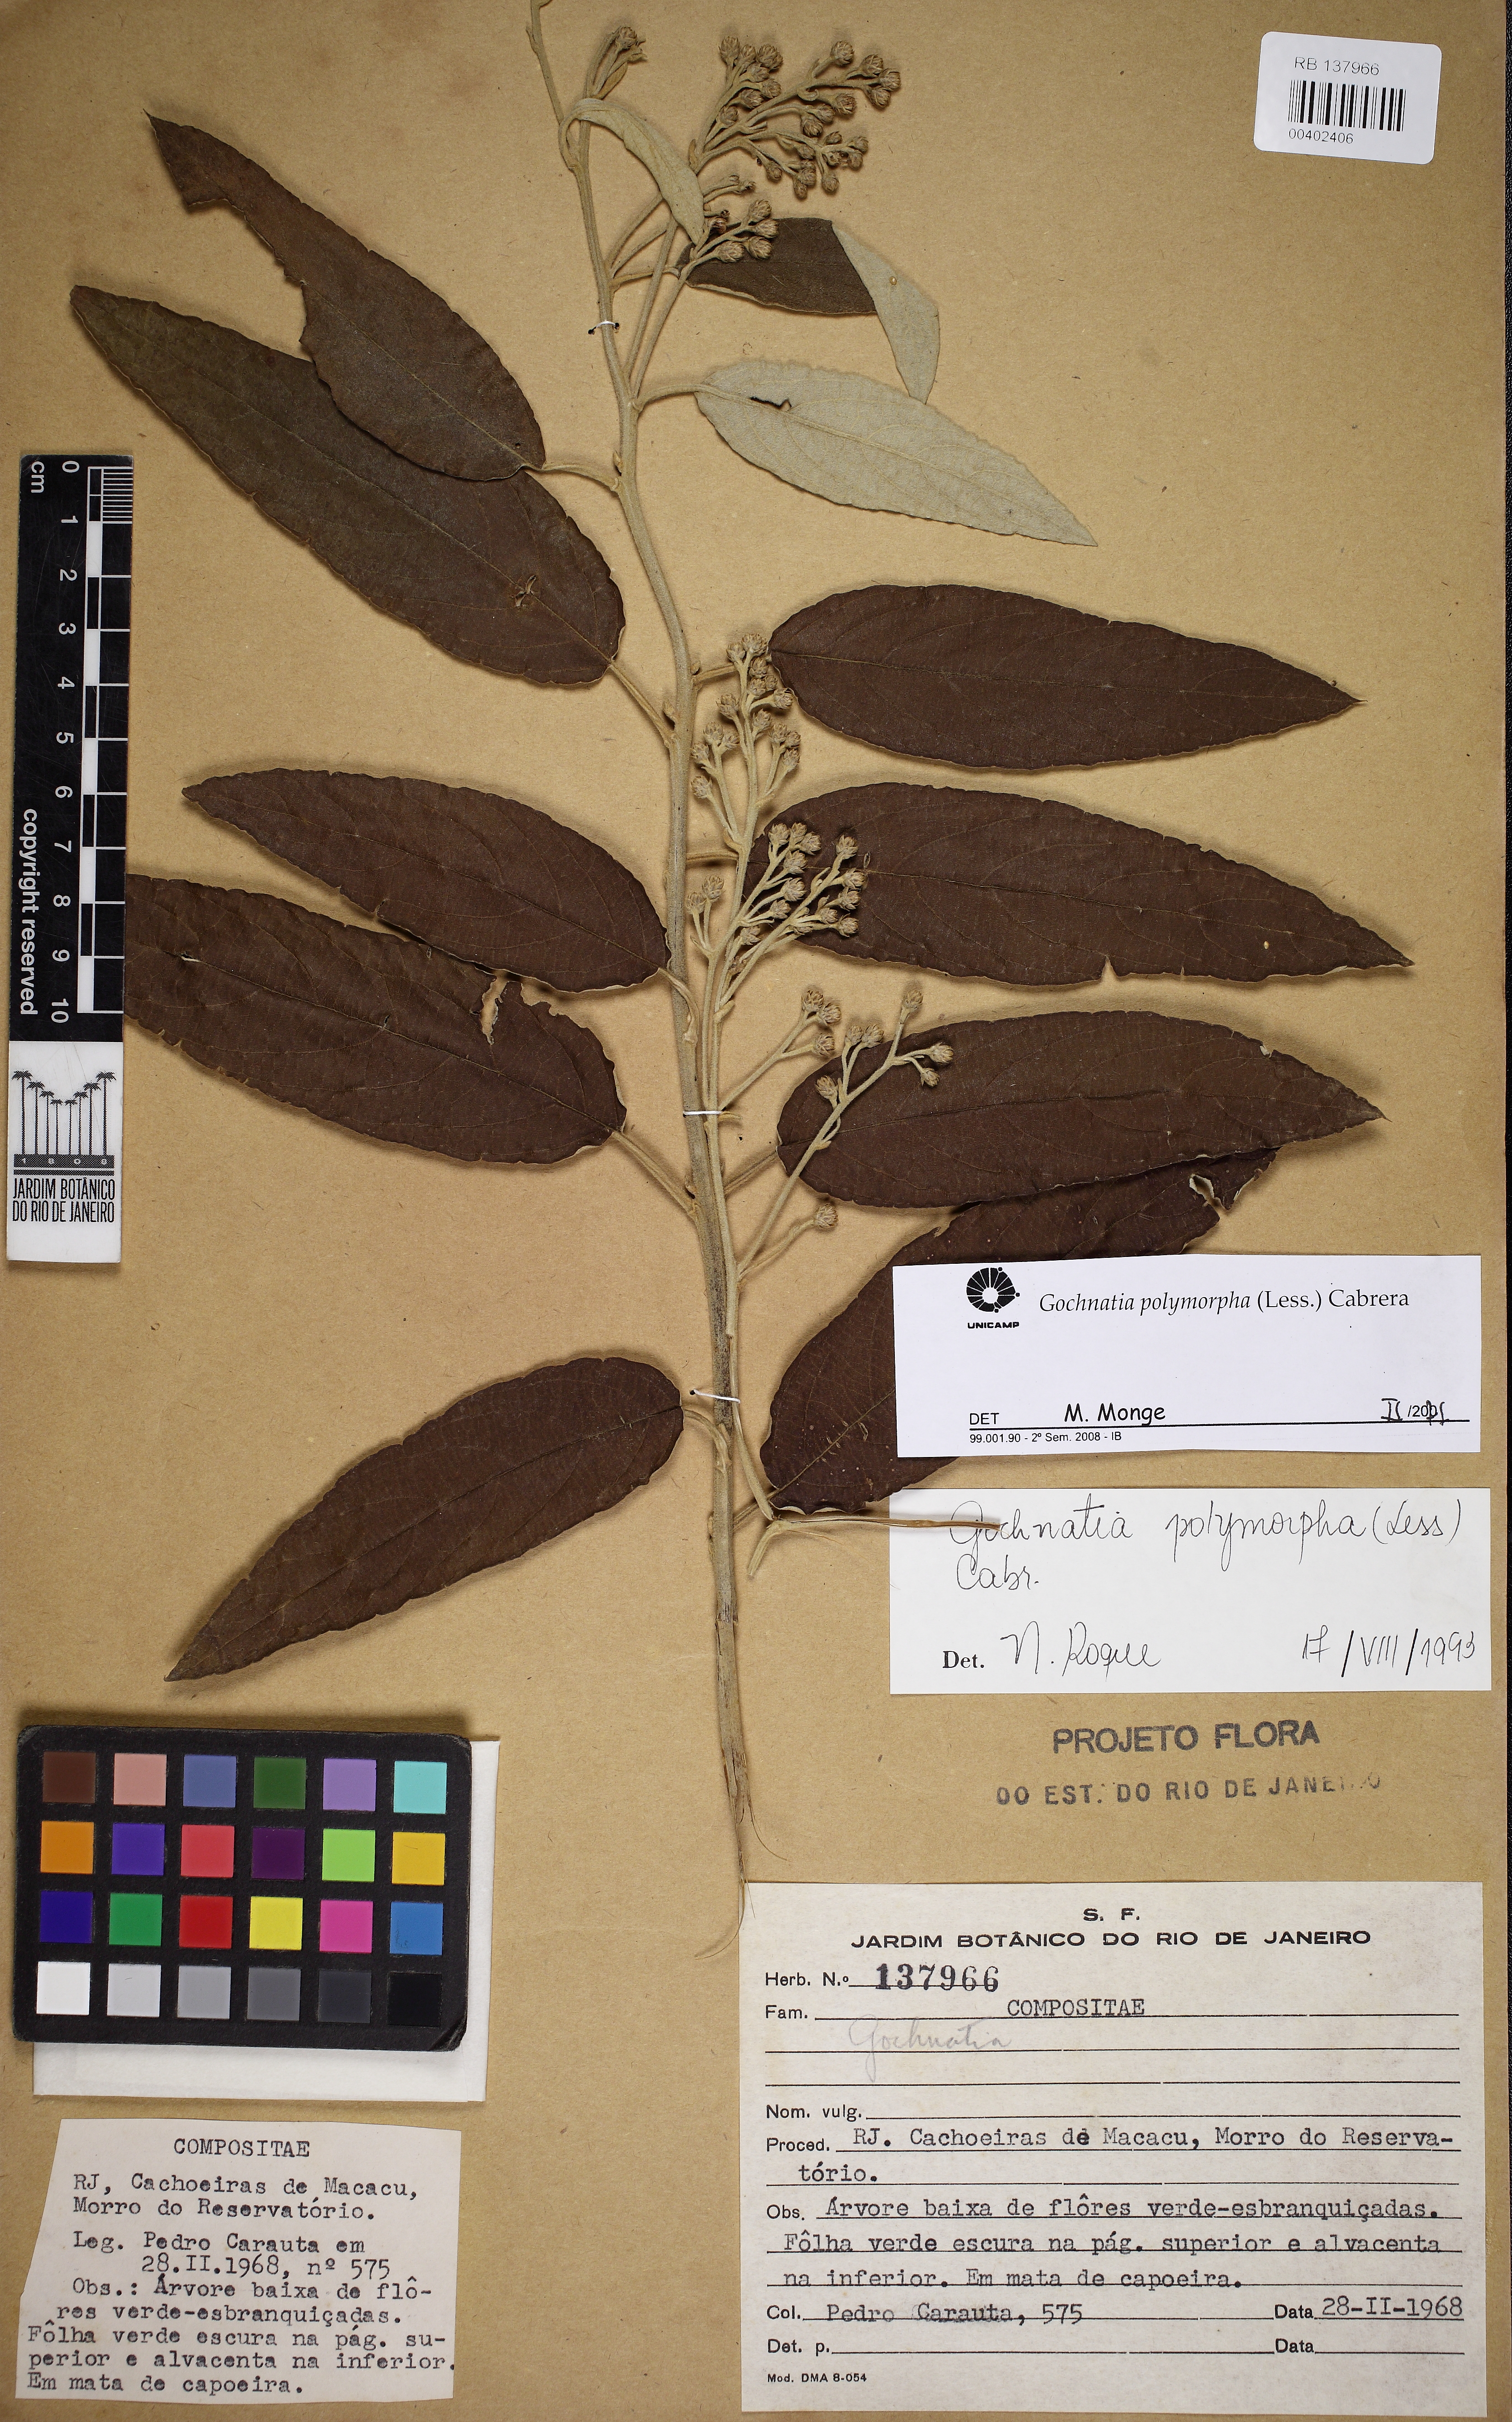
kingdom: Plantae
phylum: Tracheophyta
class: Magnoliopsida
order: Asterales
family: Asteraceae
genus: Moquiniastrum
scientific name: Moquiniastrum polymorphum
